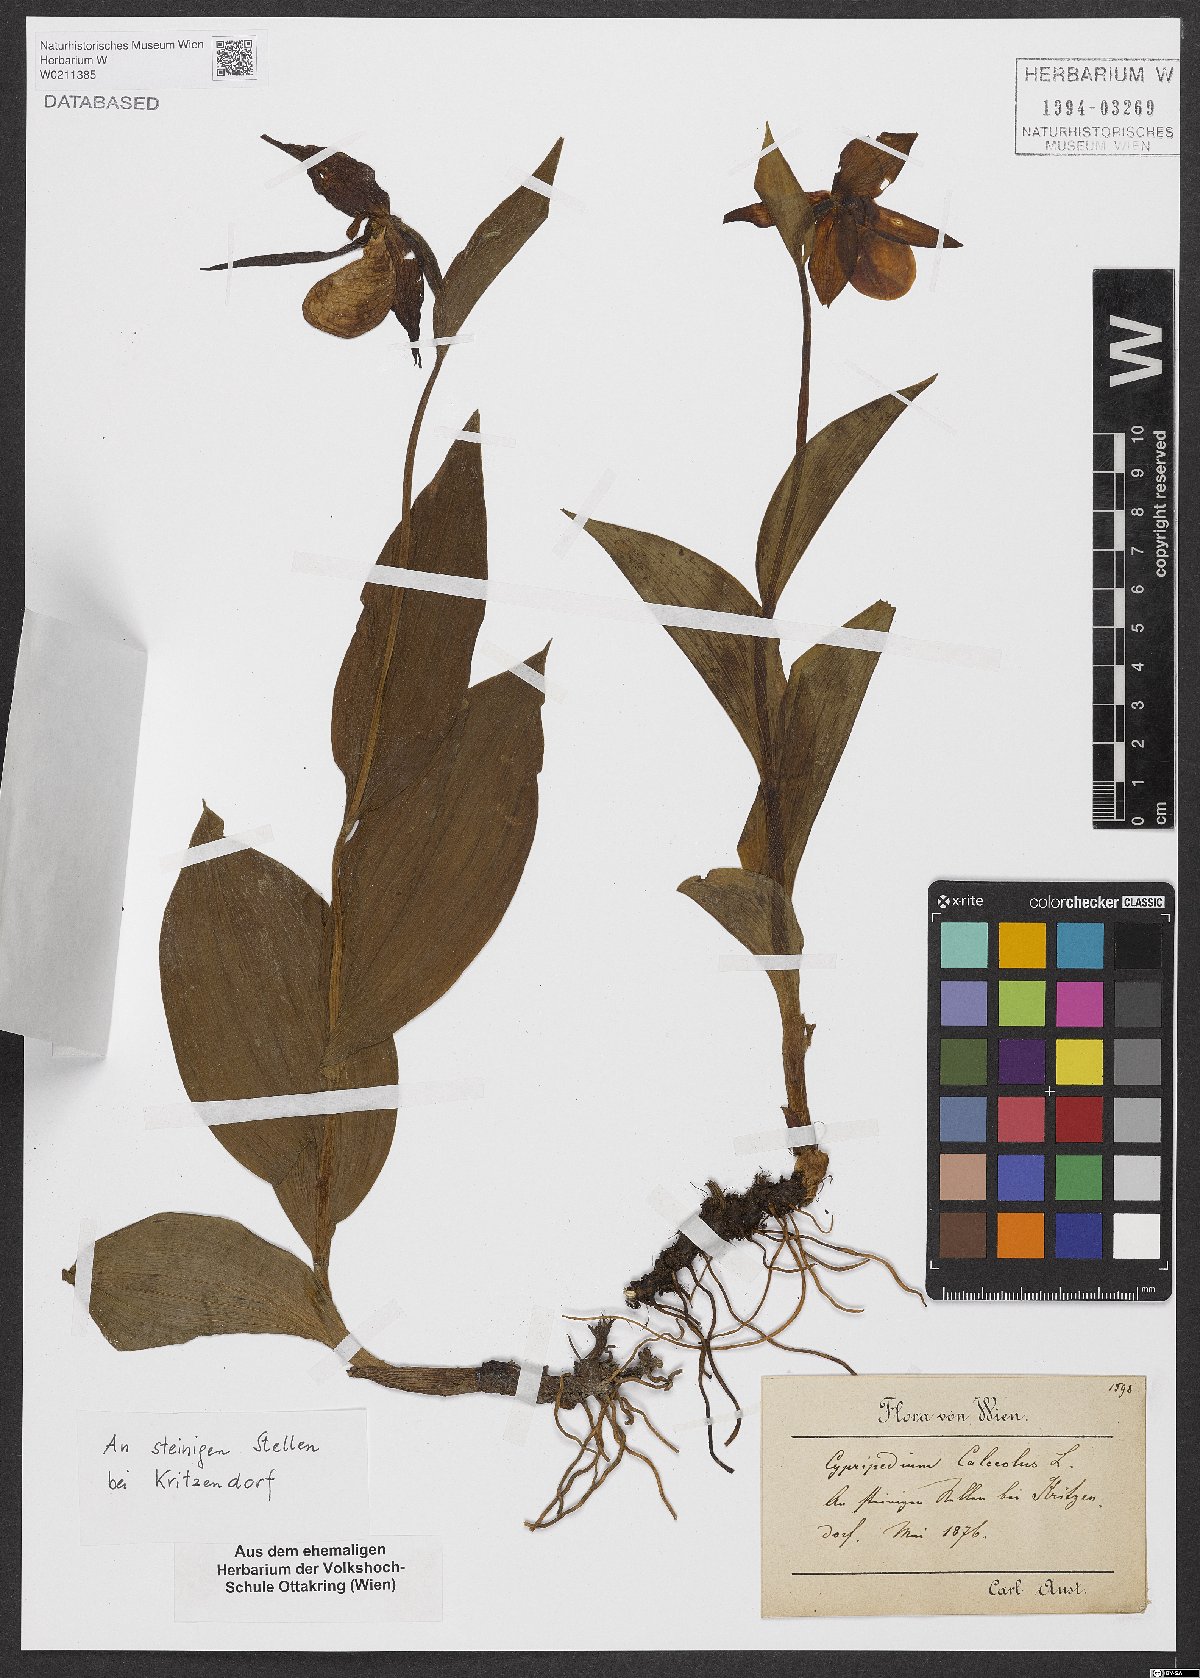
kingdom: Plantae
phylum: Tracheophyta
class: Liliopsida
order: Asparagales
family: Orchidaceae
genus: Cypripedium
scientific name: Cypripedium calceolus
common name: Lady's-slipper
